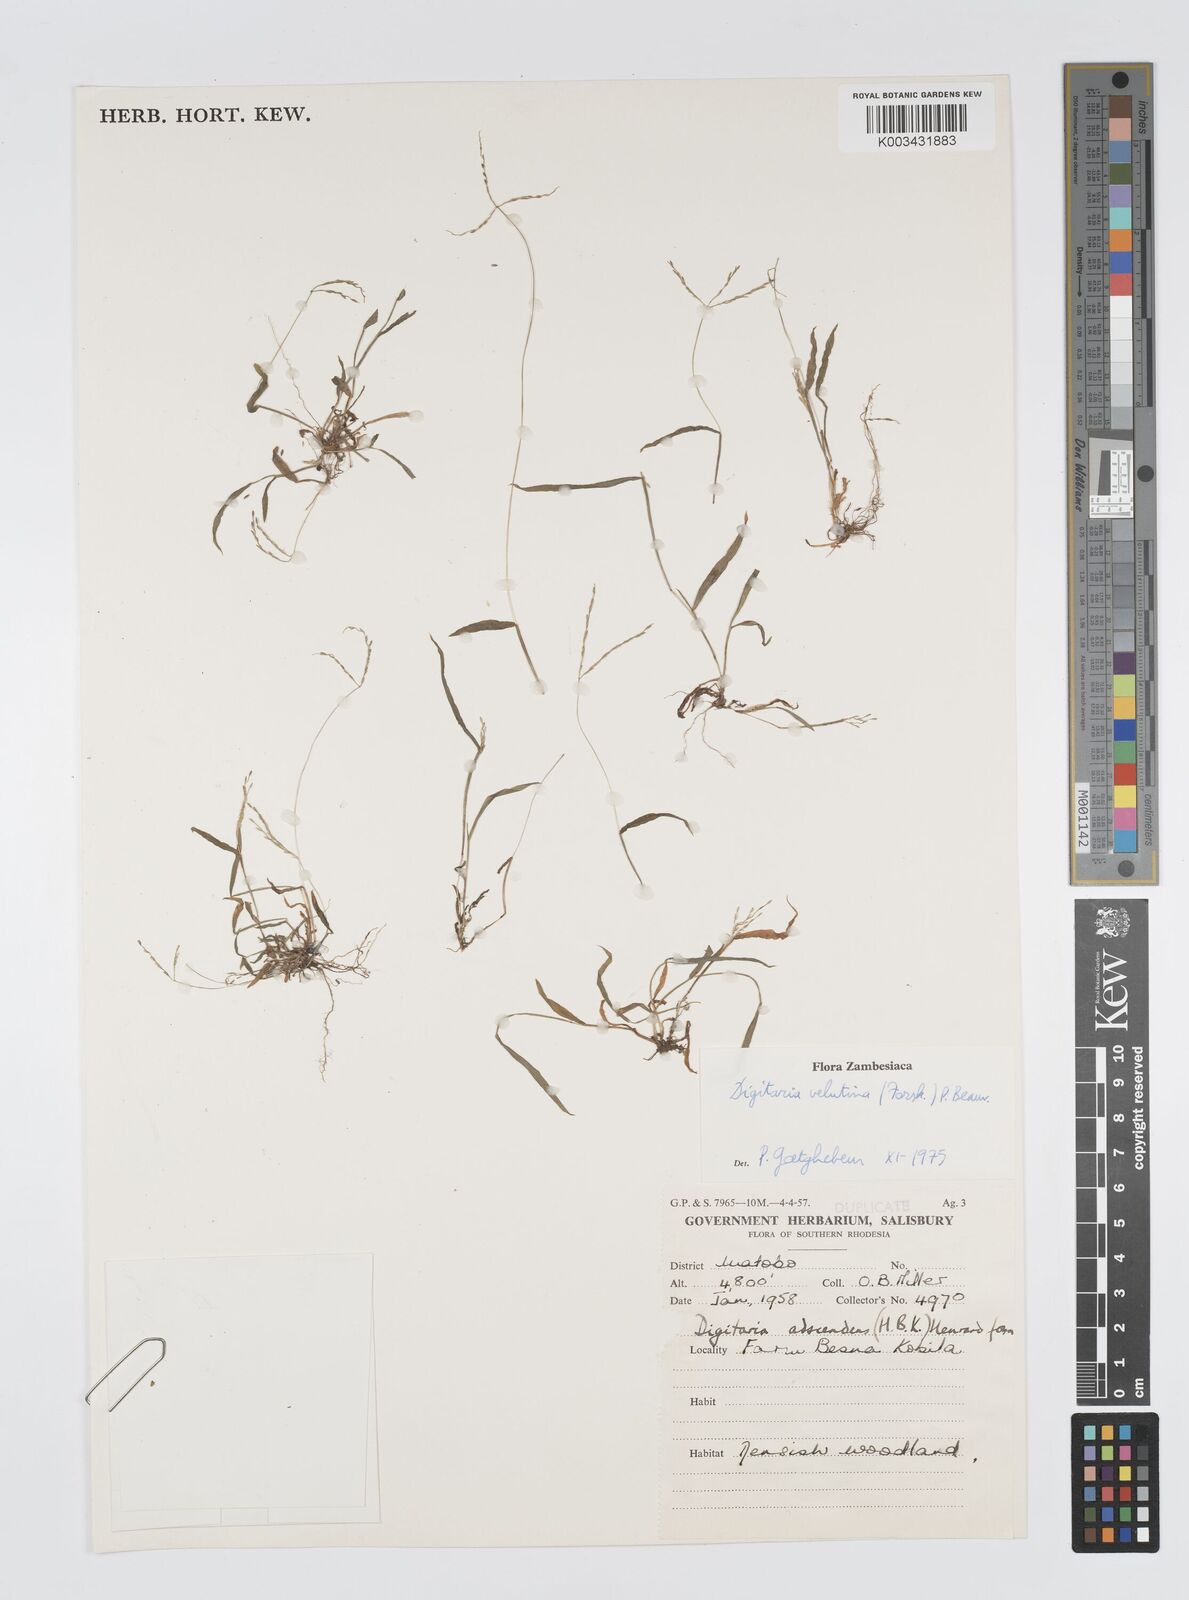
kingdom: Plantae
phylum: Tracheophyta
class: Liliopsida
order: Poales
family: Poaceae
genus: Digitaria
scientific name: Digitaria velutina
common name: Long-plume finger grass
